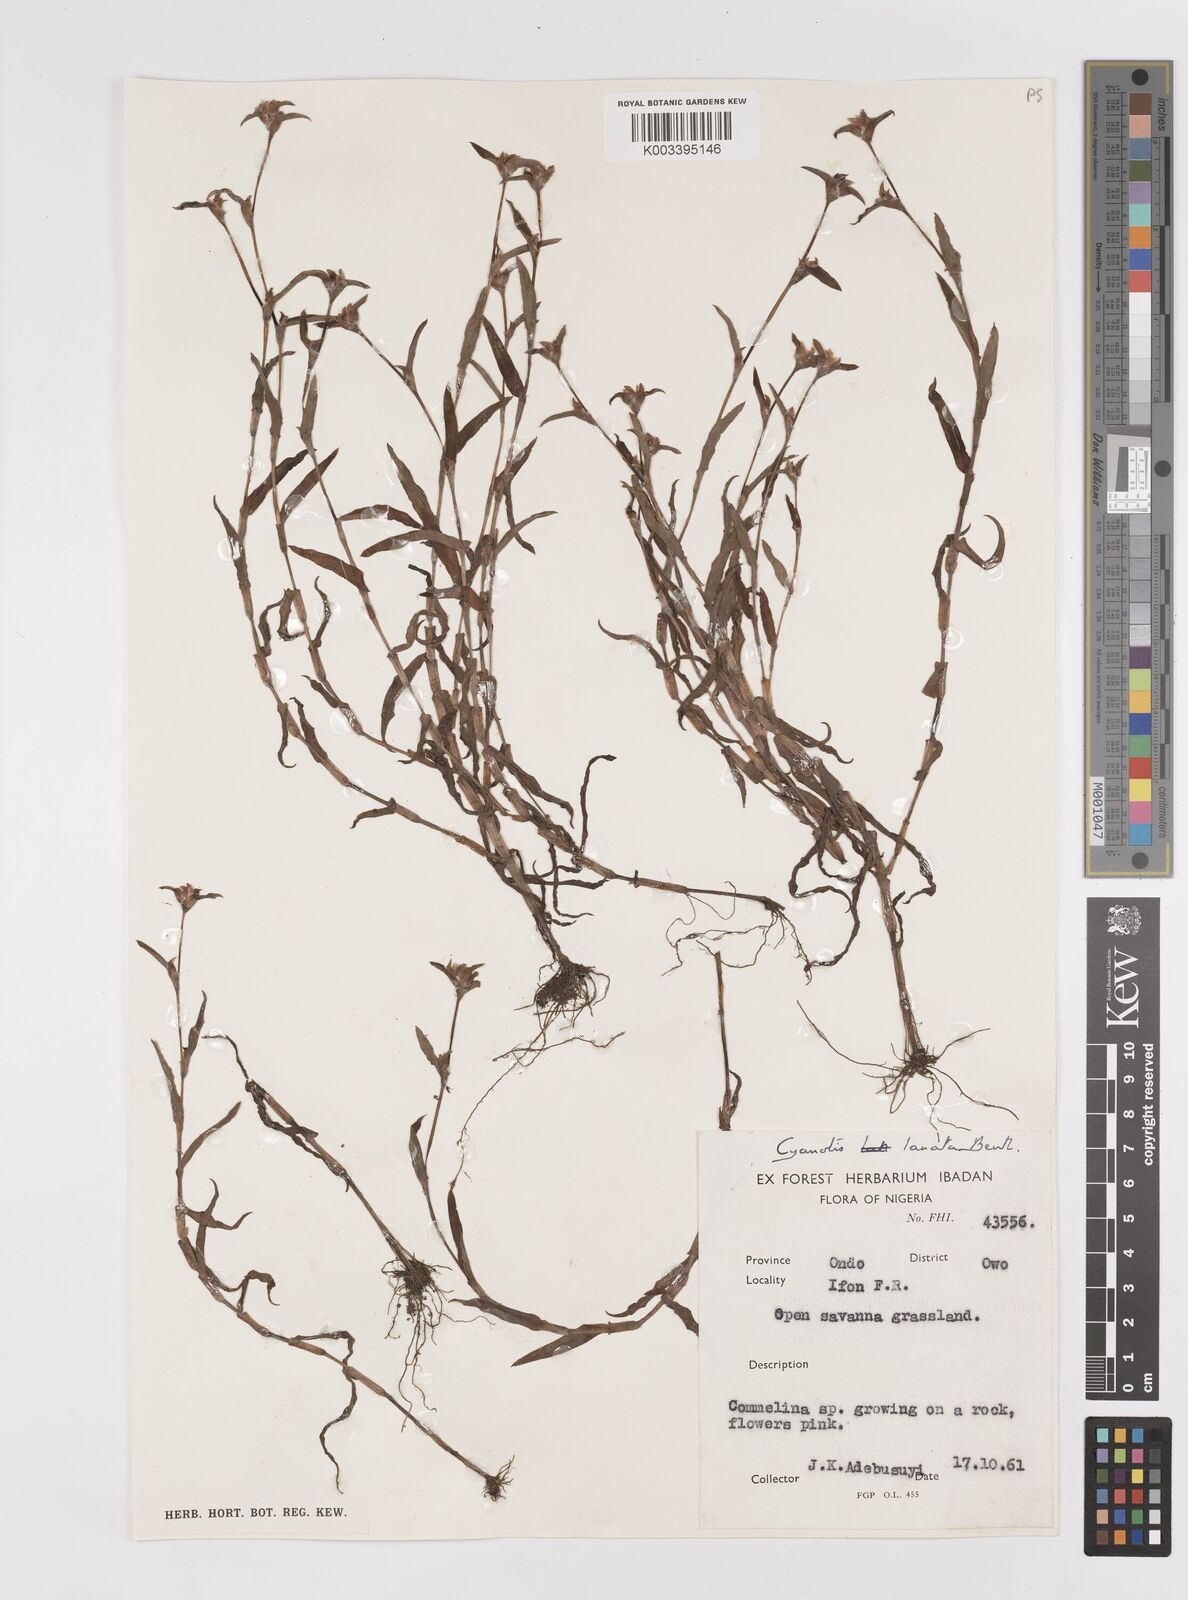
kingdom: Plantae
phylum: Tracheophyta
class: Liliopsida
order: Commelinales
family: Commelinaceae
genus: Cyanotis
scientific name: Cyanotis lanata
